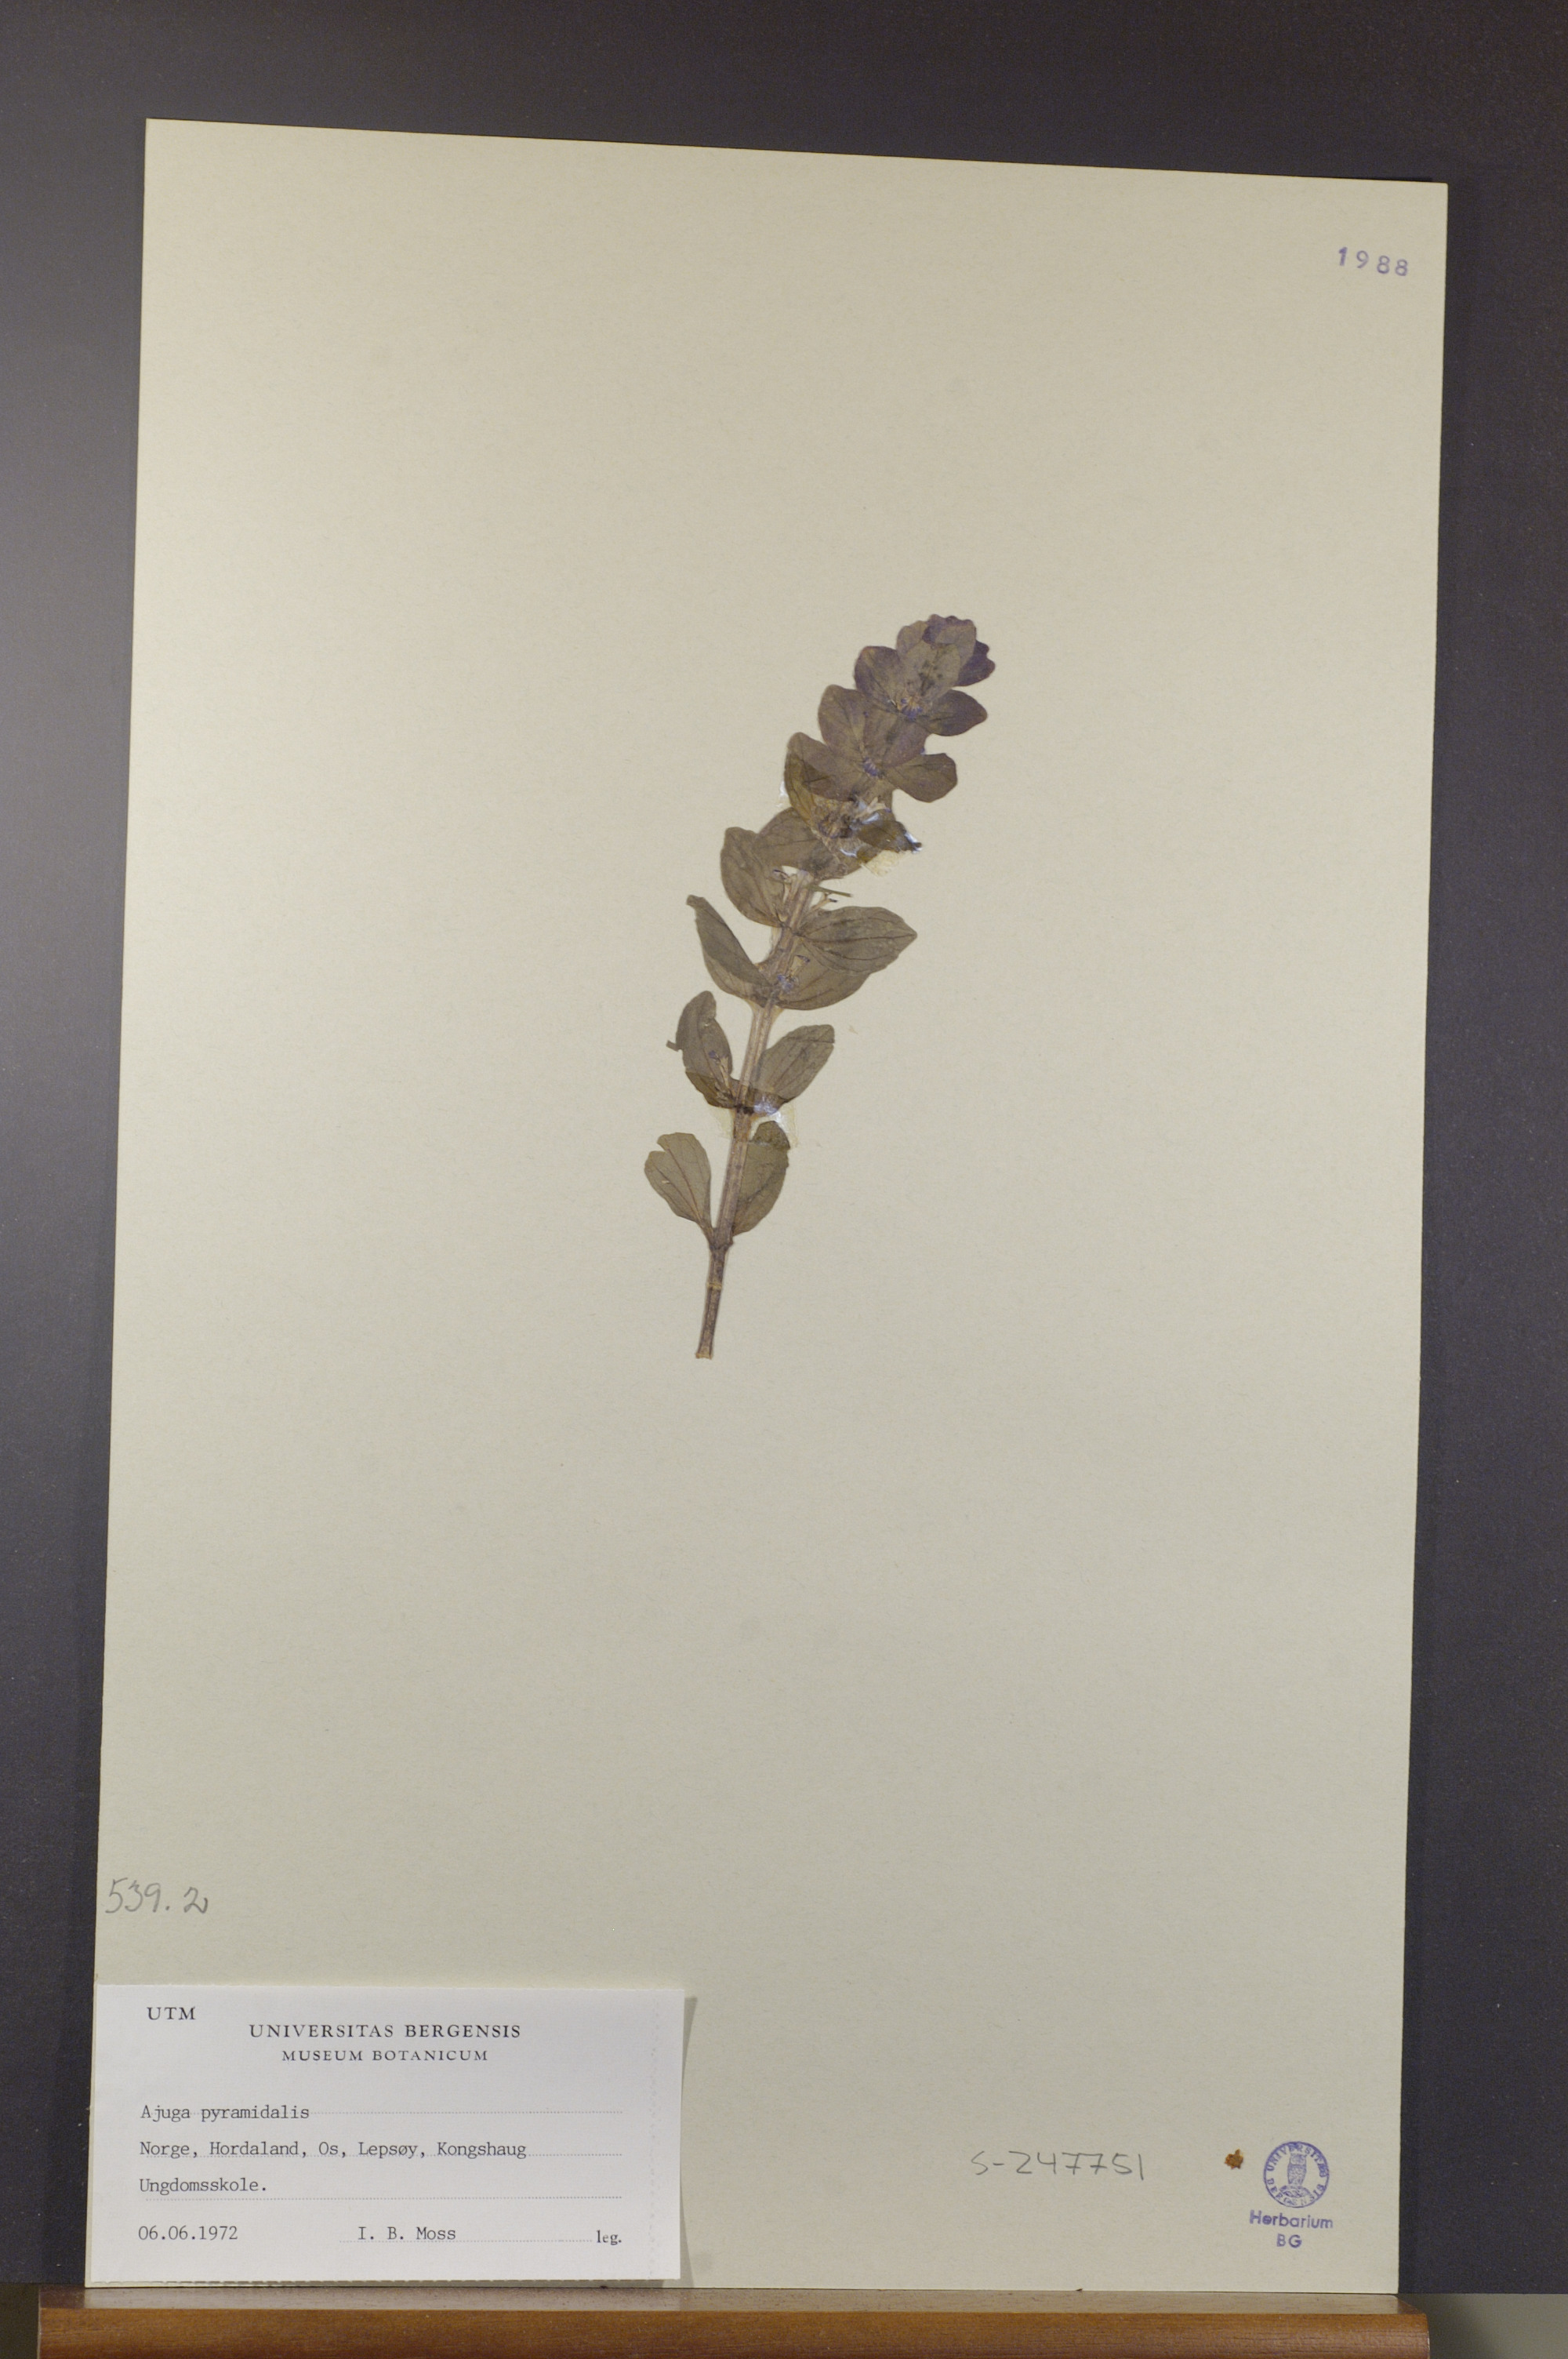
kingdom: Plantae
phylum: Tracheophyta
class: Magnoliopsida
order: Lamiales
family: Lamiaceae
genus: Ajuga
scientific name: Ajuga pyramidalis
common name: Pyramid bugle
